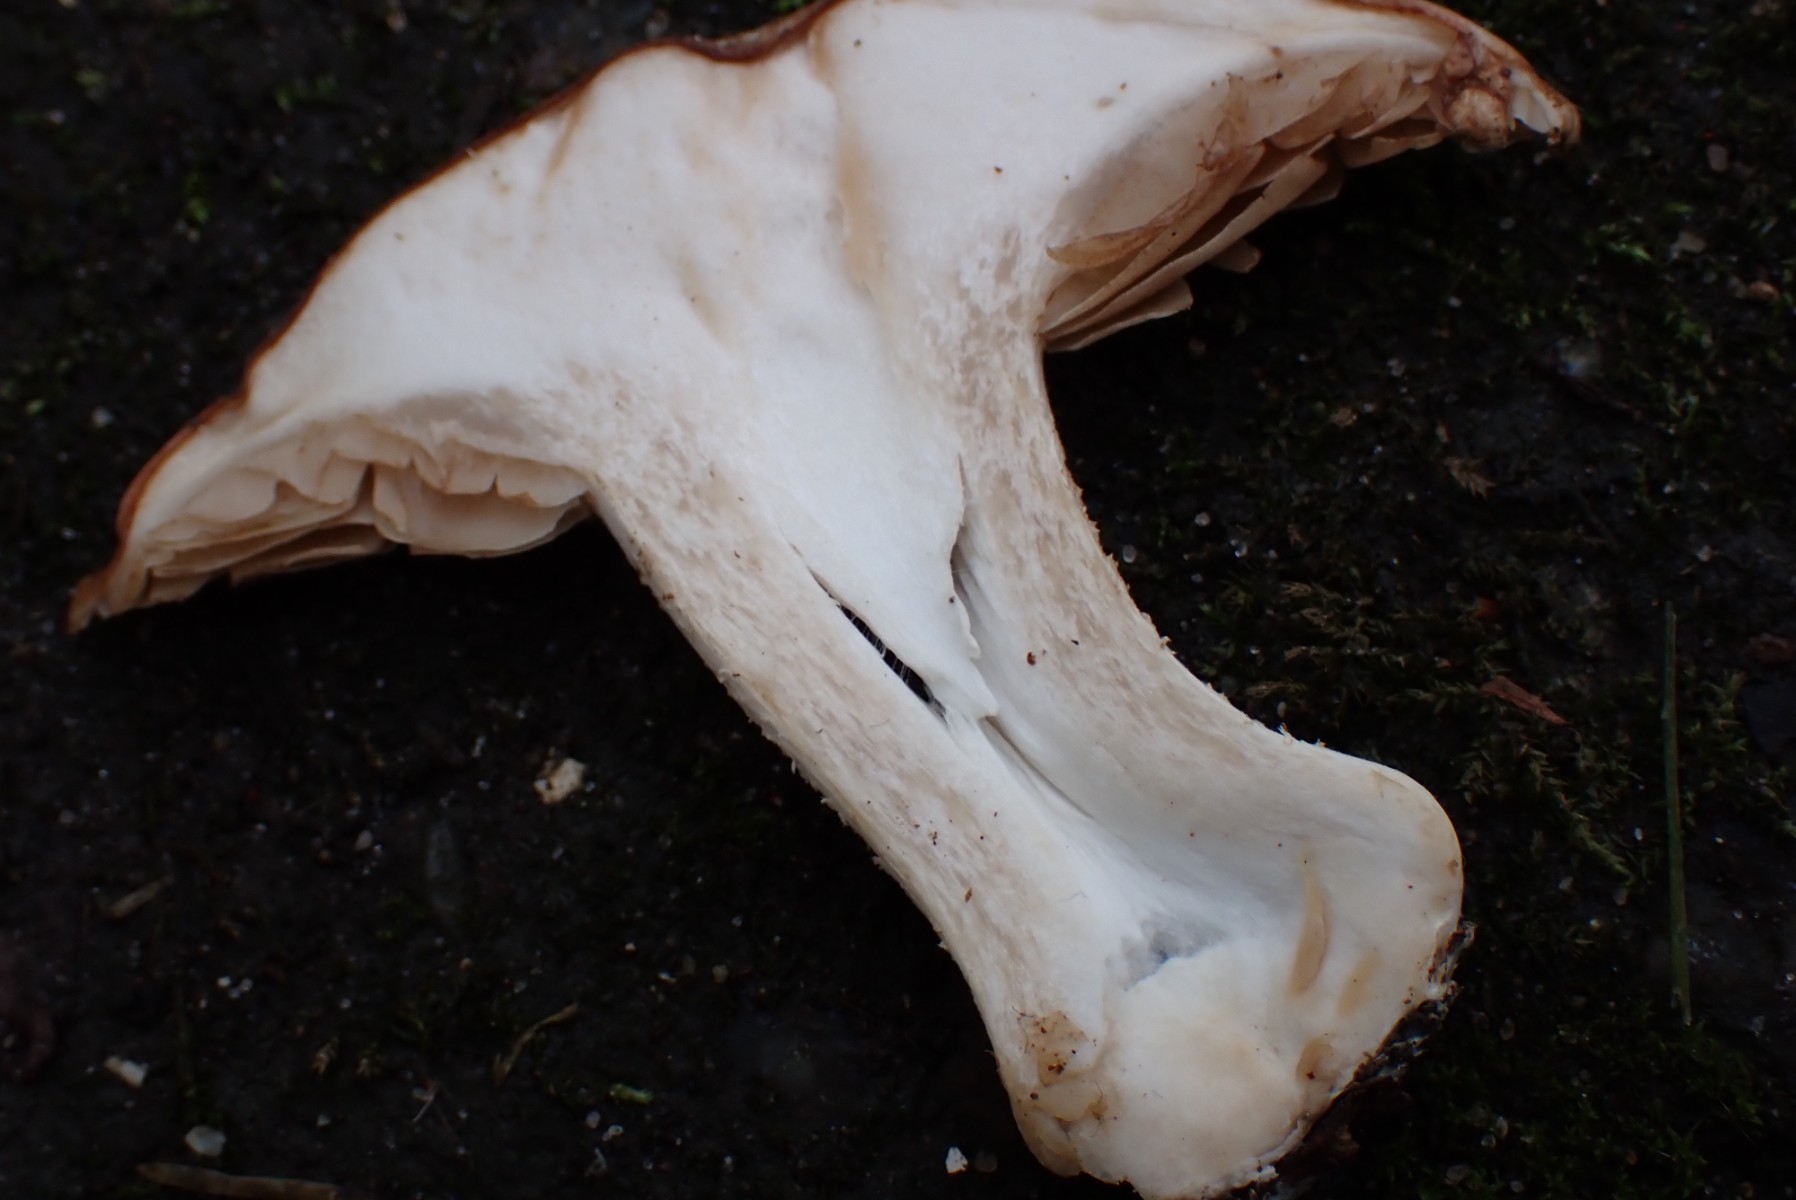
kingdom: Fungi
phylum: Basidiomycota
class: Agaricomycetes
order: Agaricales
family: Hymenogastraceae
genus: Hebeloma
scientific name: Hebeloma sinapizans
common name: ræddike-tåreblad
